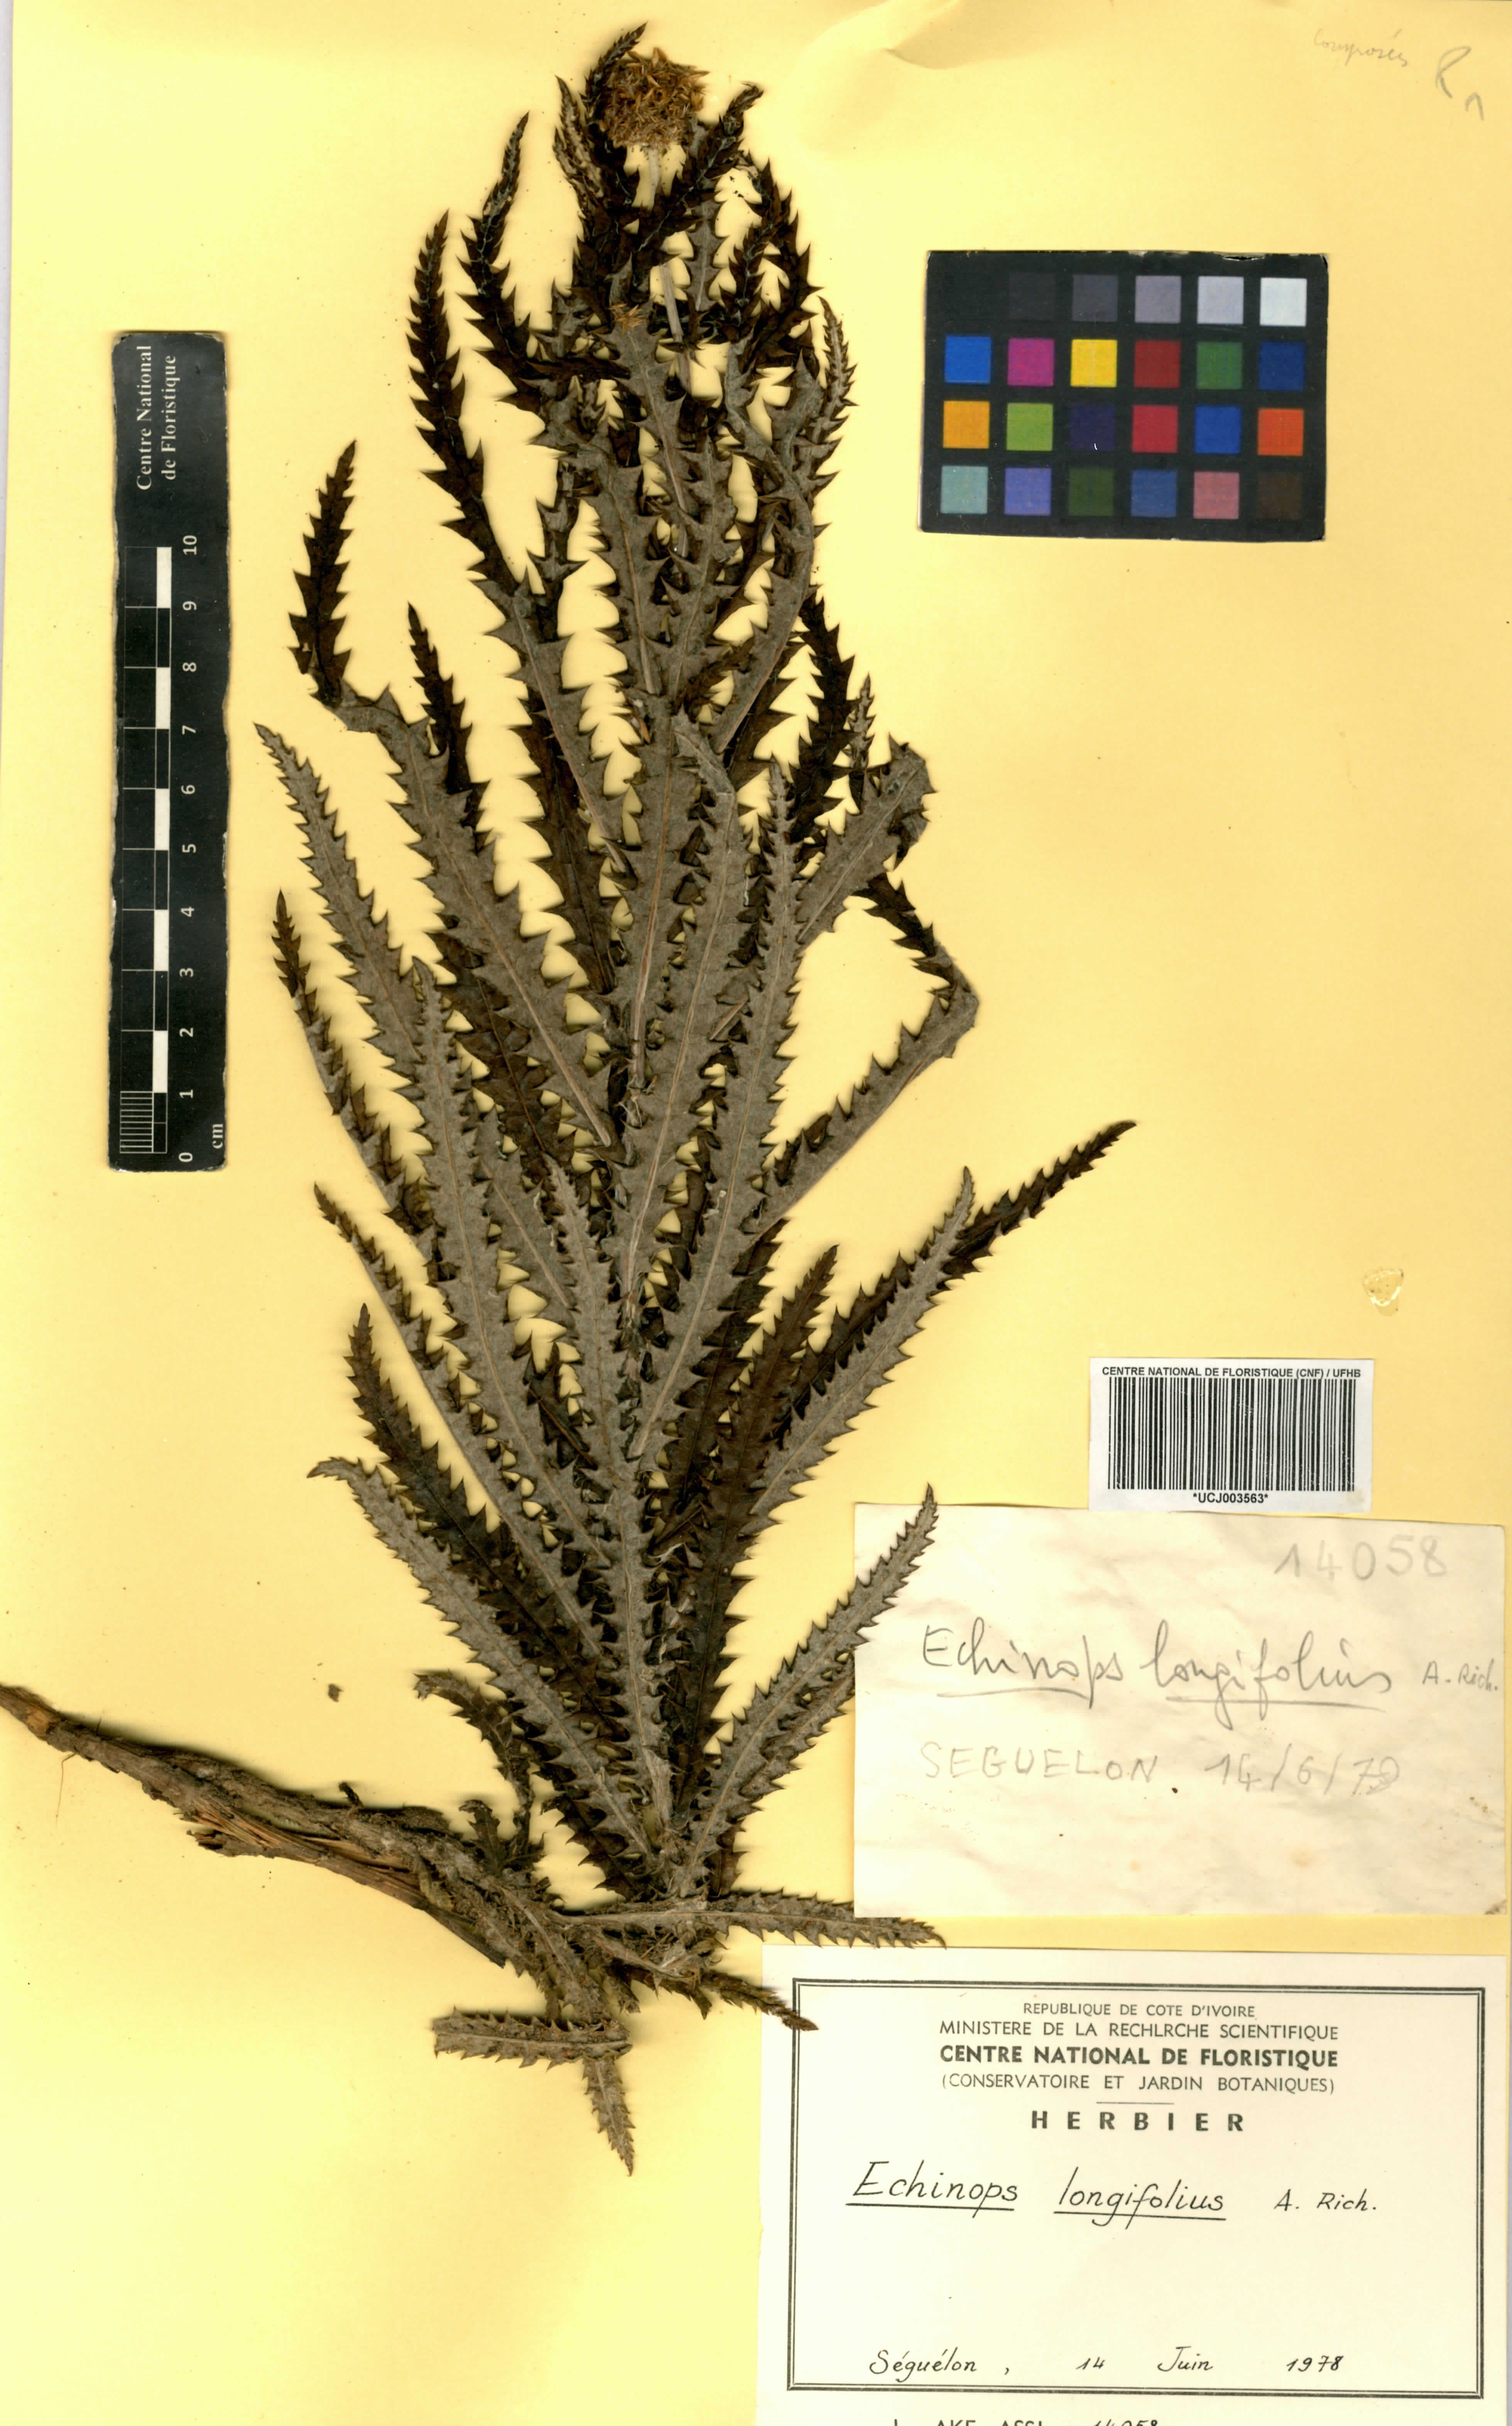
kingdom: Plantae
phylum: Tracheophyta
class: Magnoliopsida
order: Asterales
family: Asteraceae
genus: Echinops
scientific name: Echinops longifolius
